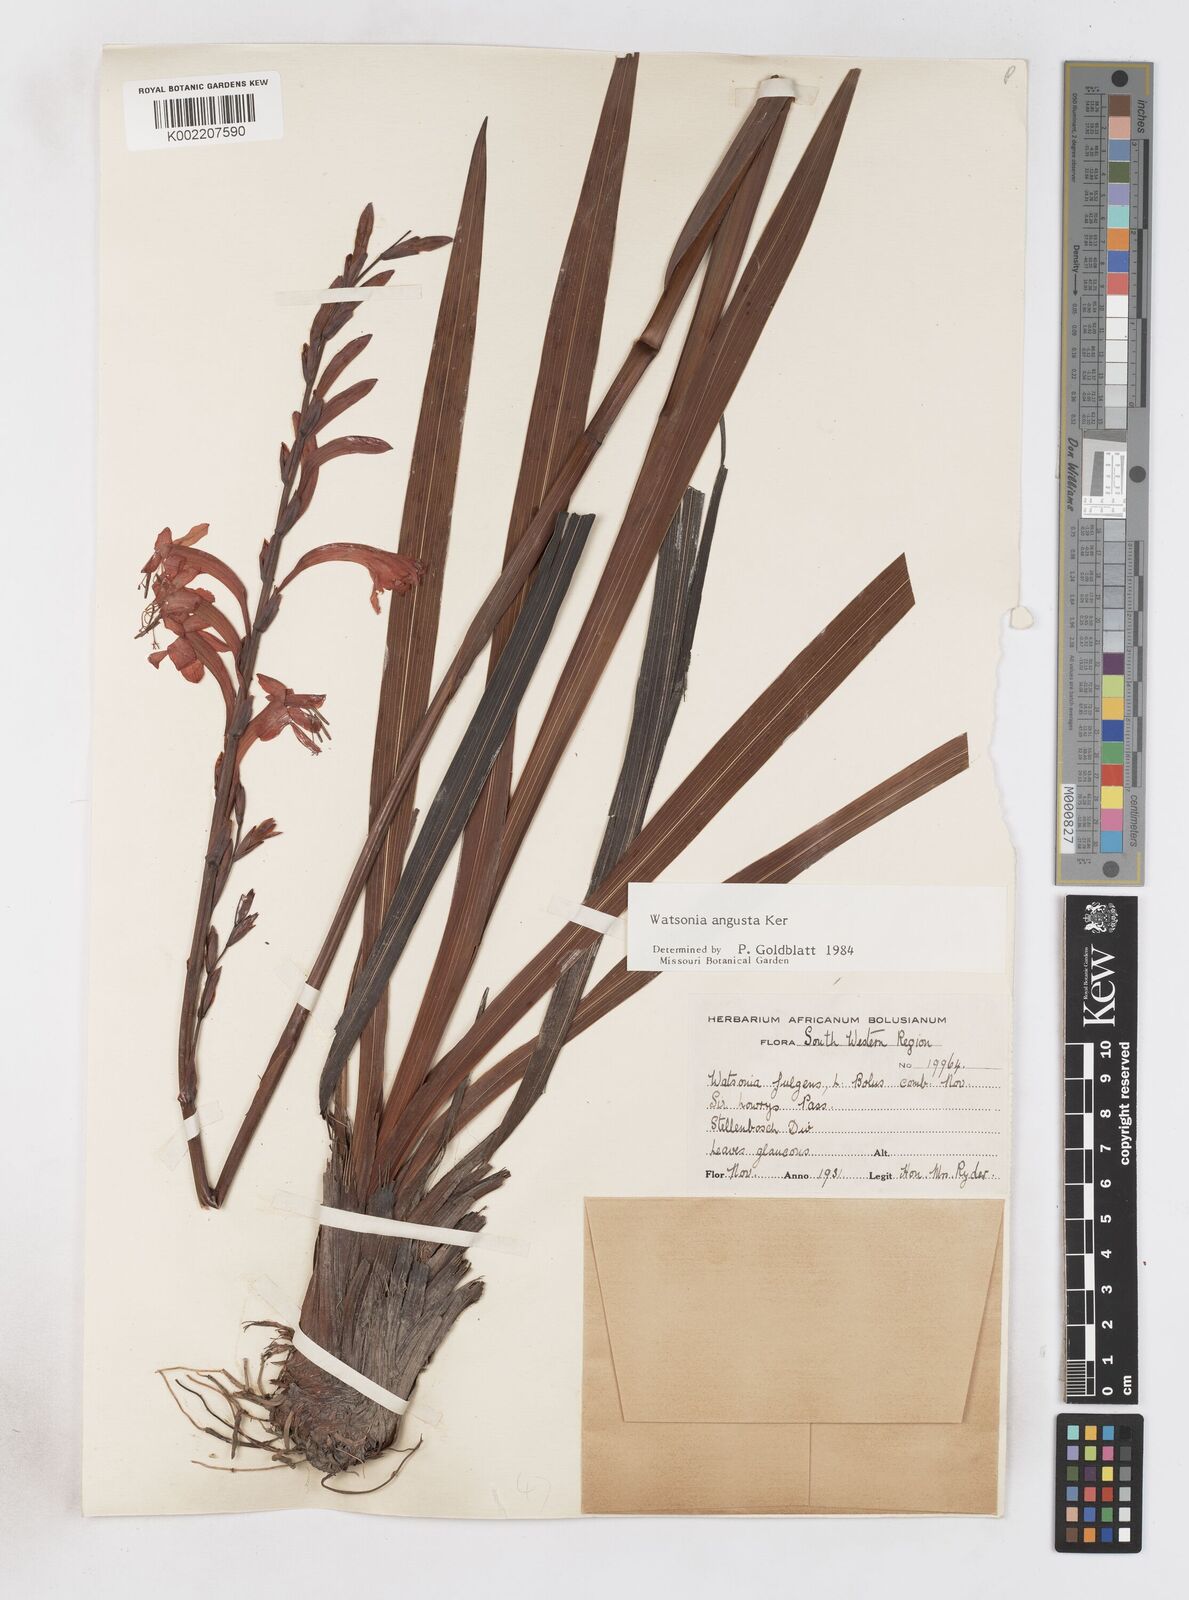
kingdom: Plantae
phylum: Tracheophyta
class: Liliopsida
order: Asparagales
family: Iridaceae
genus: Watsonia
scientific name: Watsonia angusta
